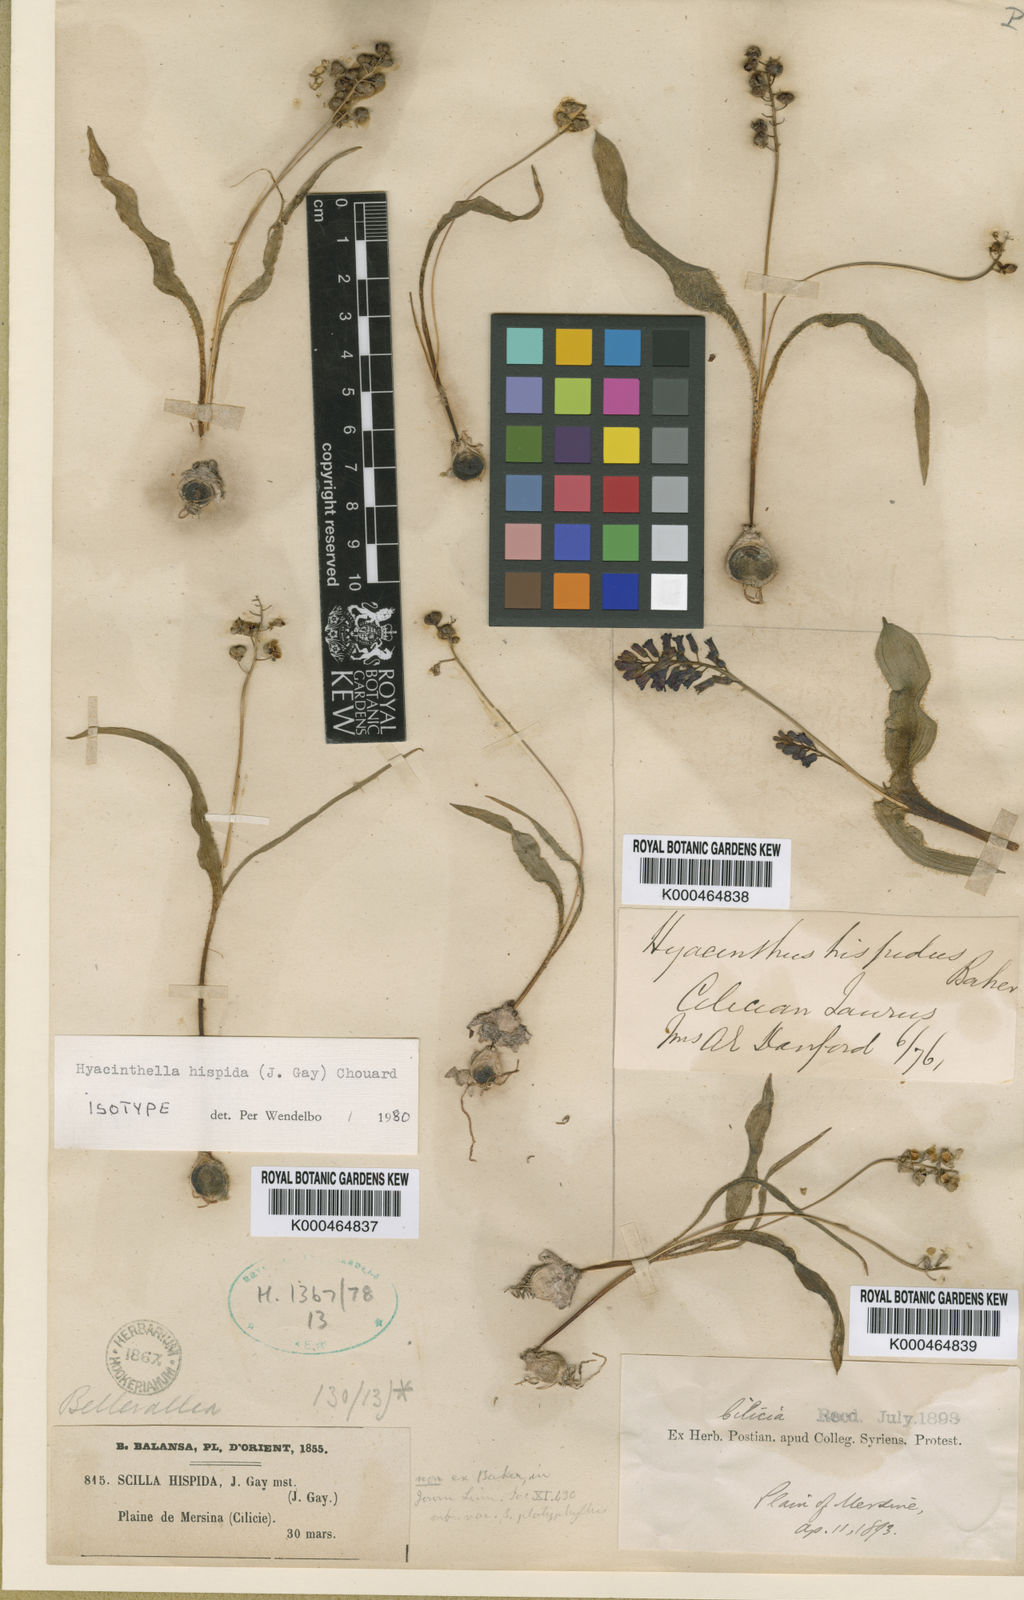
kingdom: Plantae
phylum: Tracheophyta
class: Liliopsida
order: Asparagales
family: Asparagaceae
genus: Hyacinthella
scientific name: Hyacinthella lineata
